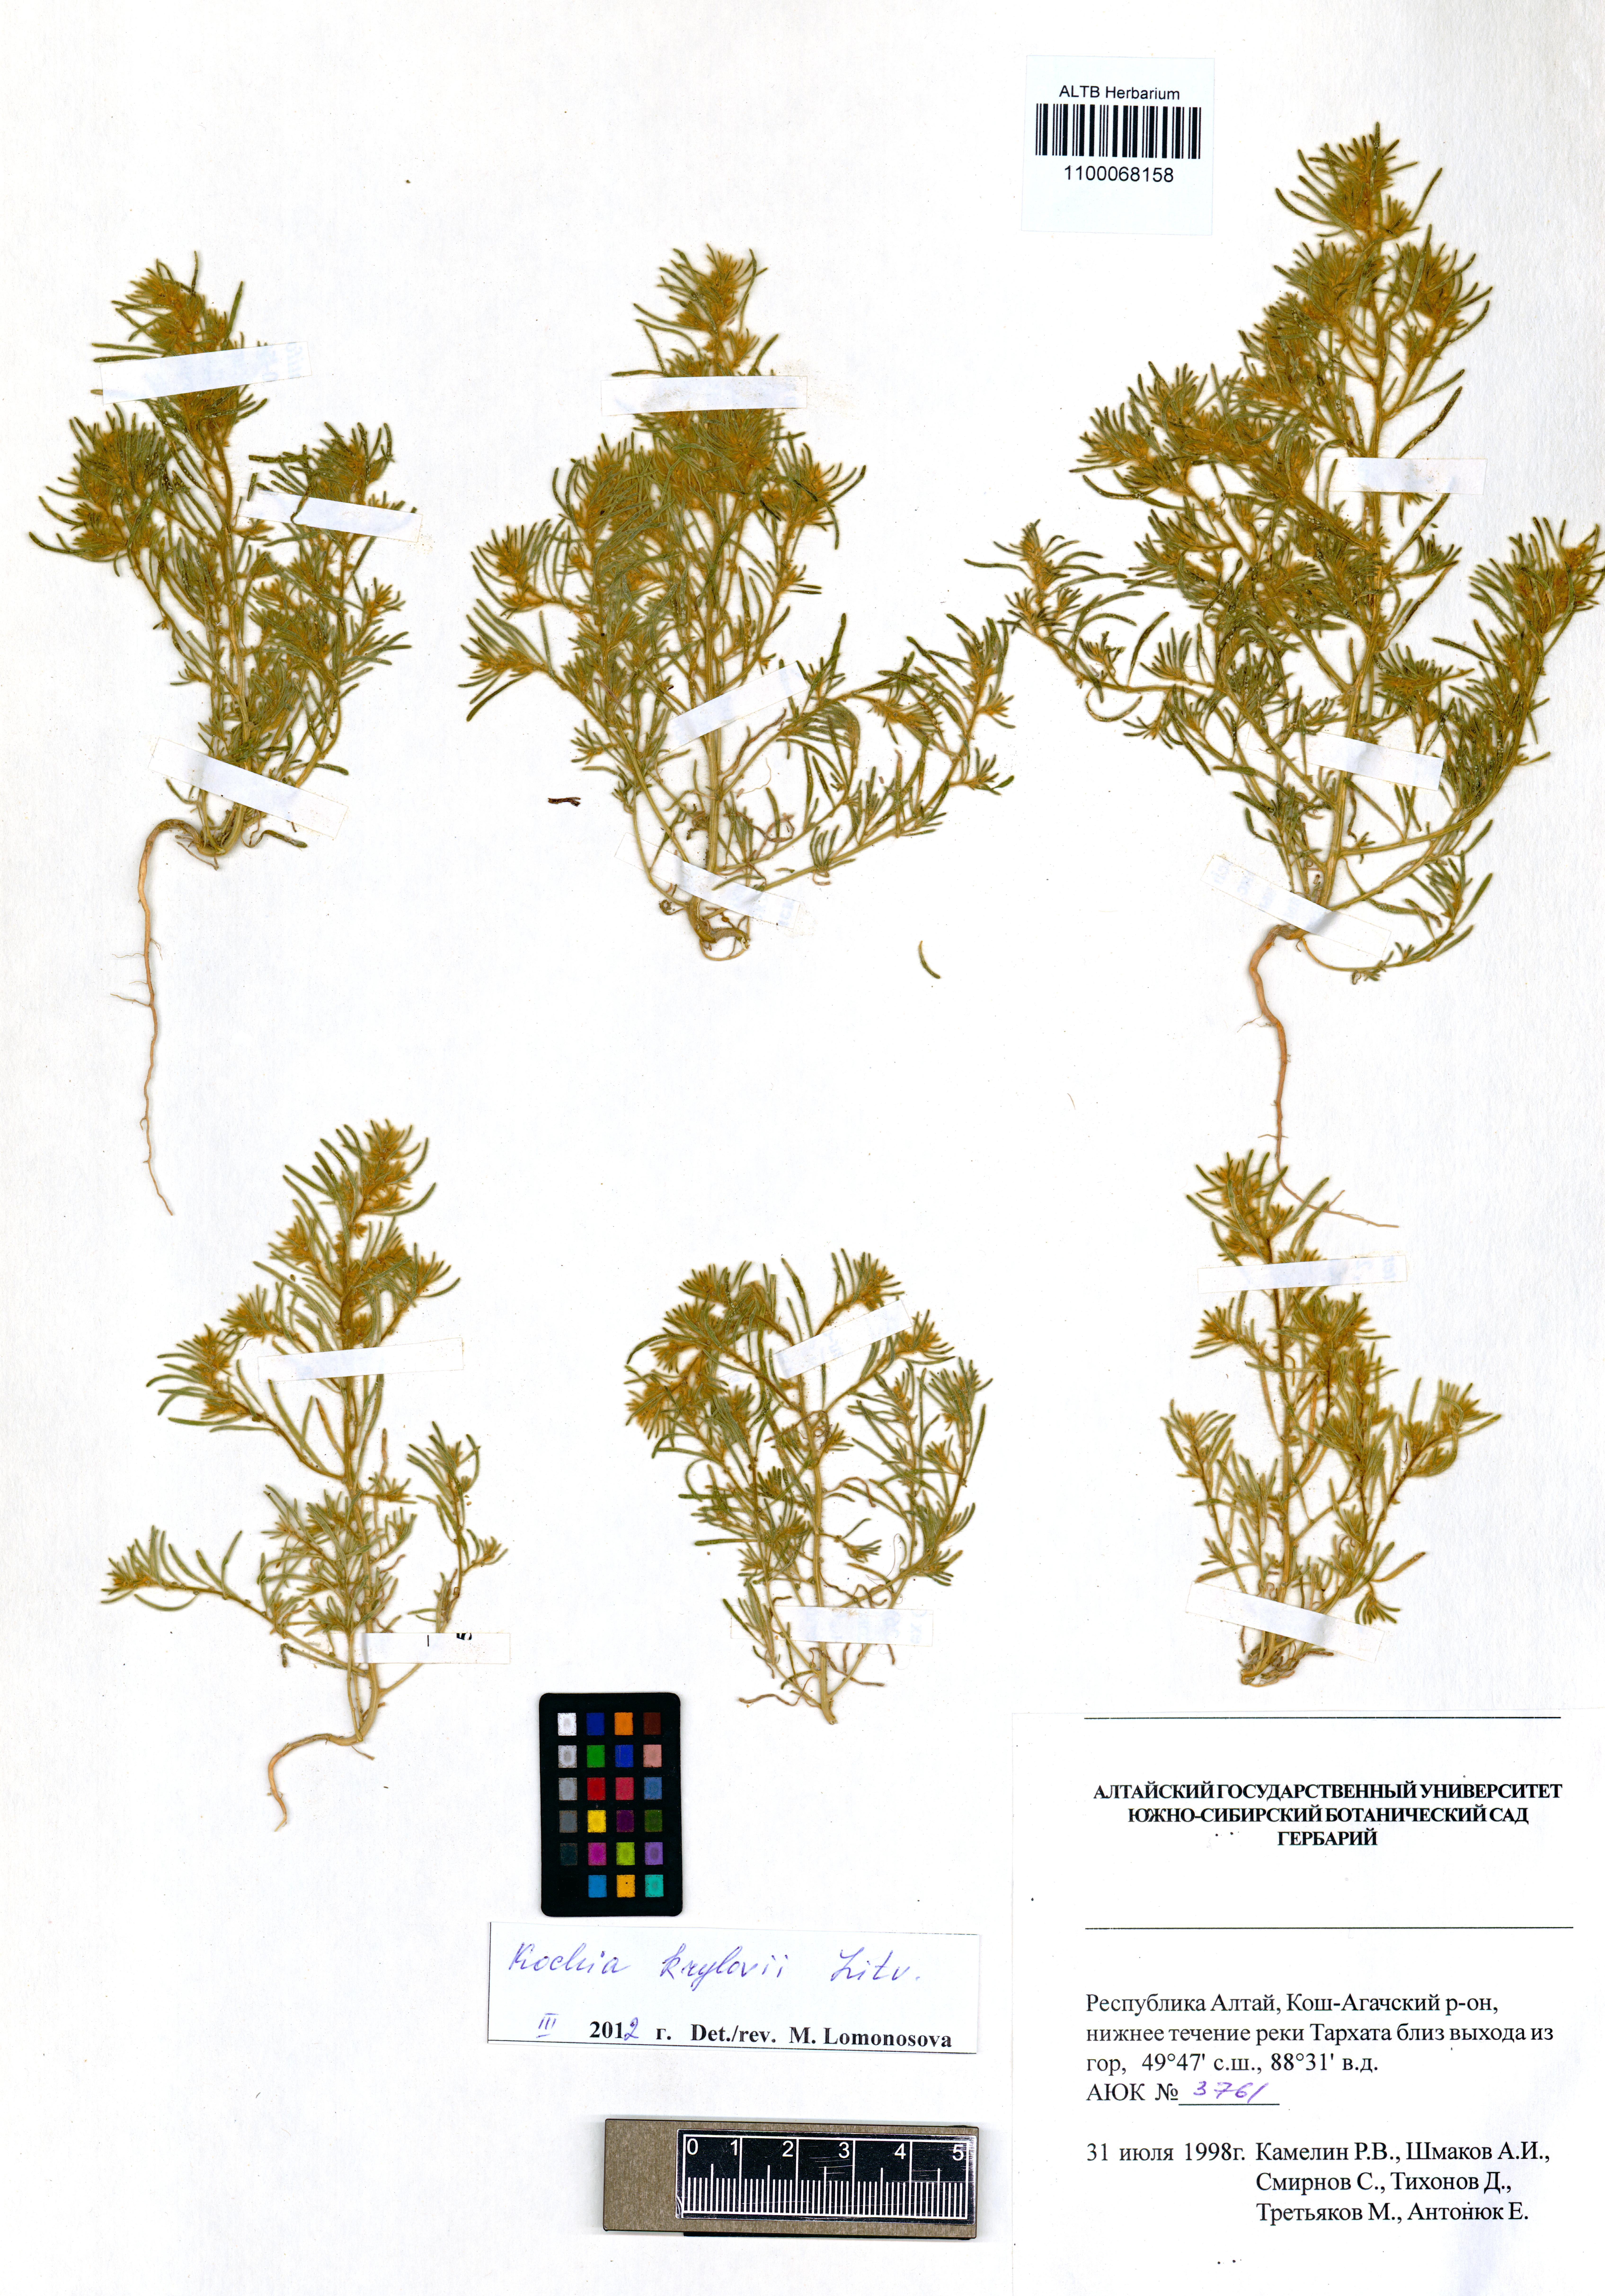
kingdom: Plantae
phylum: Tracheophyta
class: Magnoliopsida
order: Caryophyllales
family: Amaranthaceae
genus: Grubovia
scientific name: Grubovia krylowii
